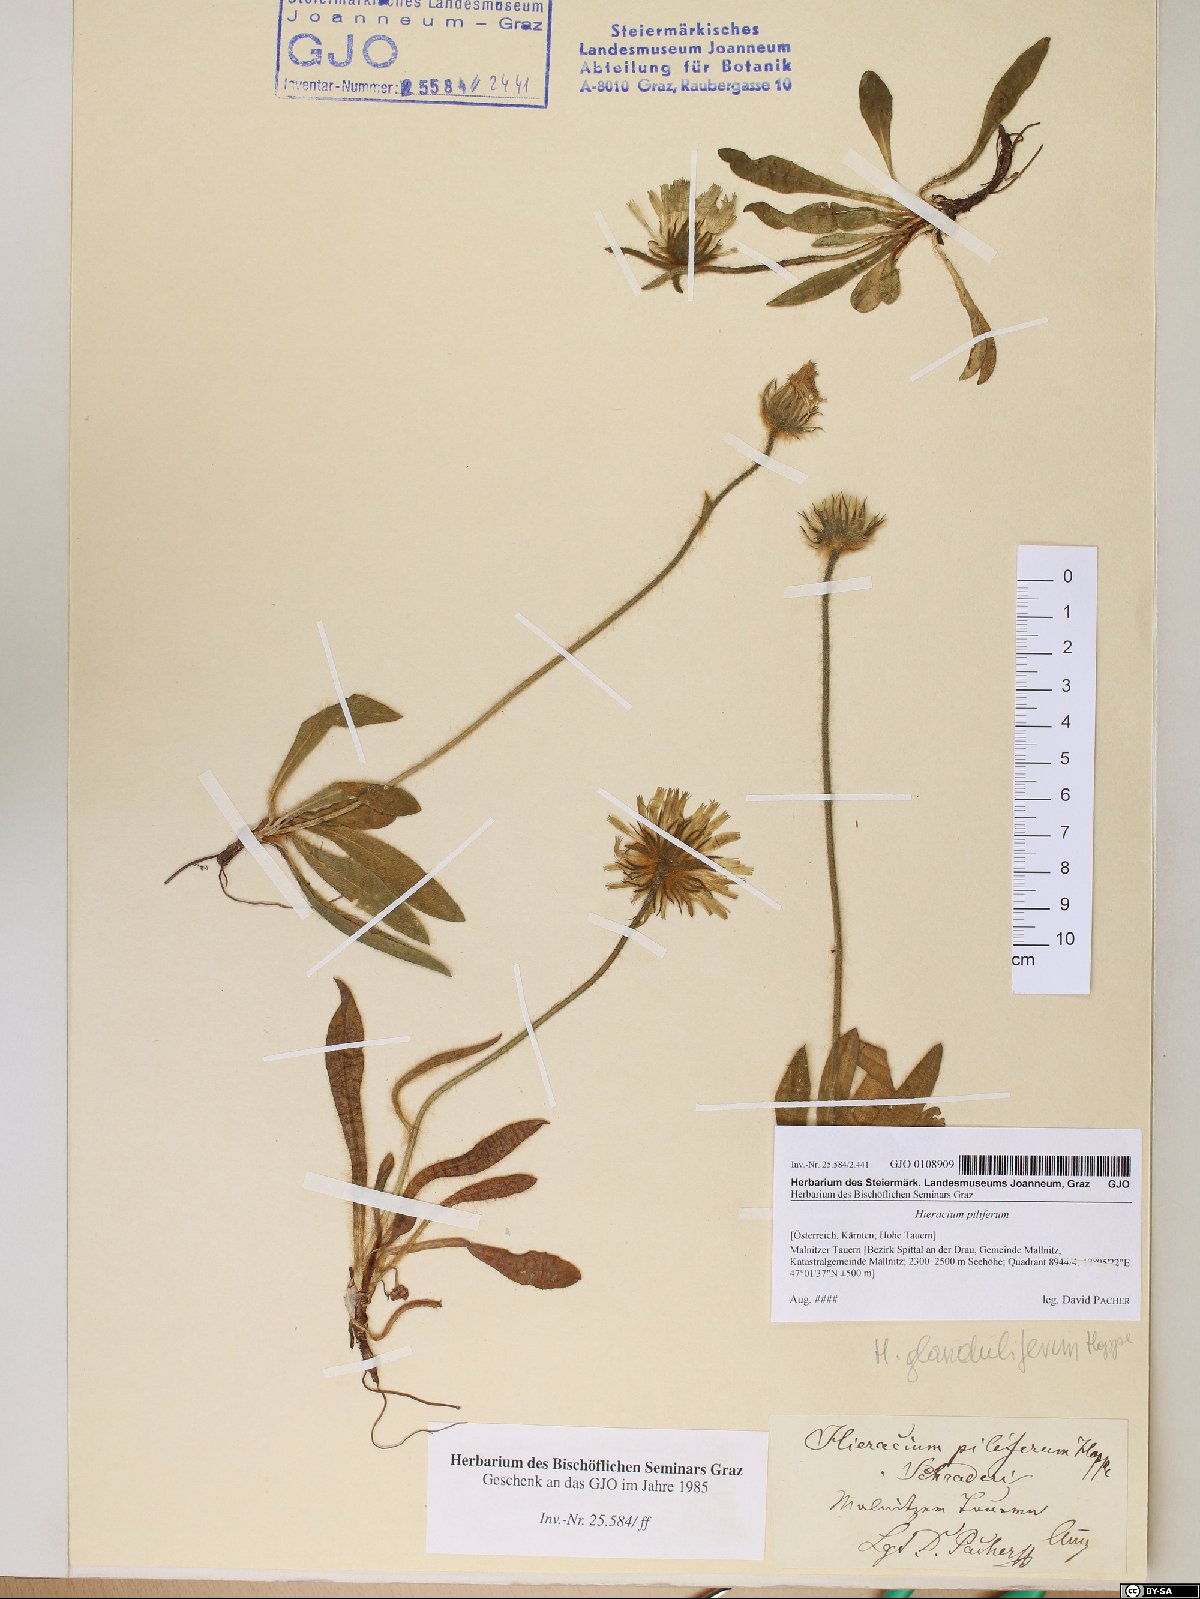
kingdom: Plantae
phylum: Tracheophyta
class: Magnoliopsida
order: Asterales
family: Asteraceae
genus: Hieracium
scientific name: Hieracium piliferum
